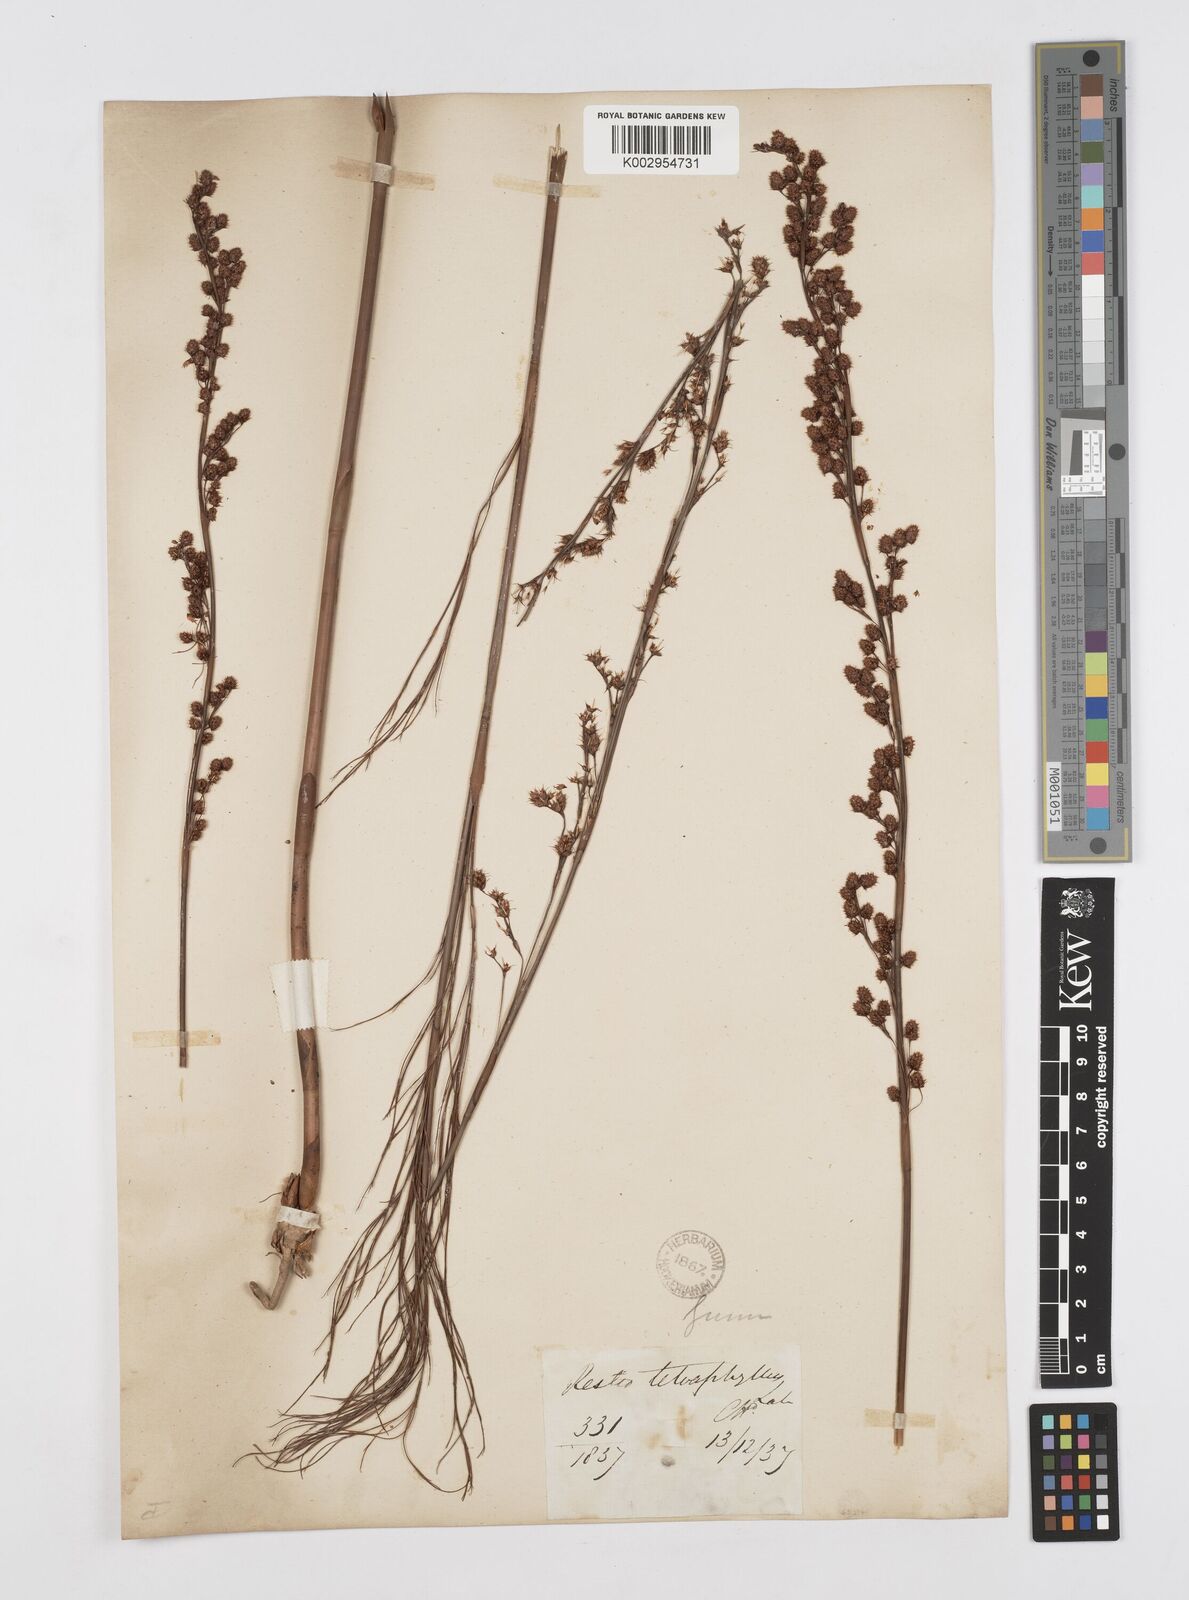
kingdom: Plantae
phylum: Tracheophyta
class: Liliopsida
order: Poales
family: Restionaceae
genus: Baloskion
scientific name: Baloskion tetraphyllum
